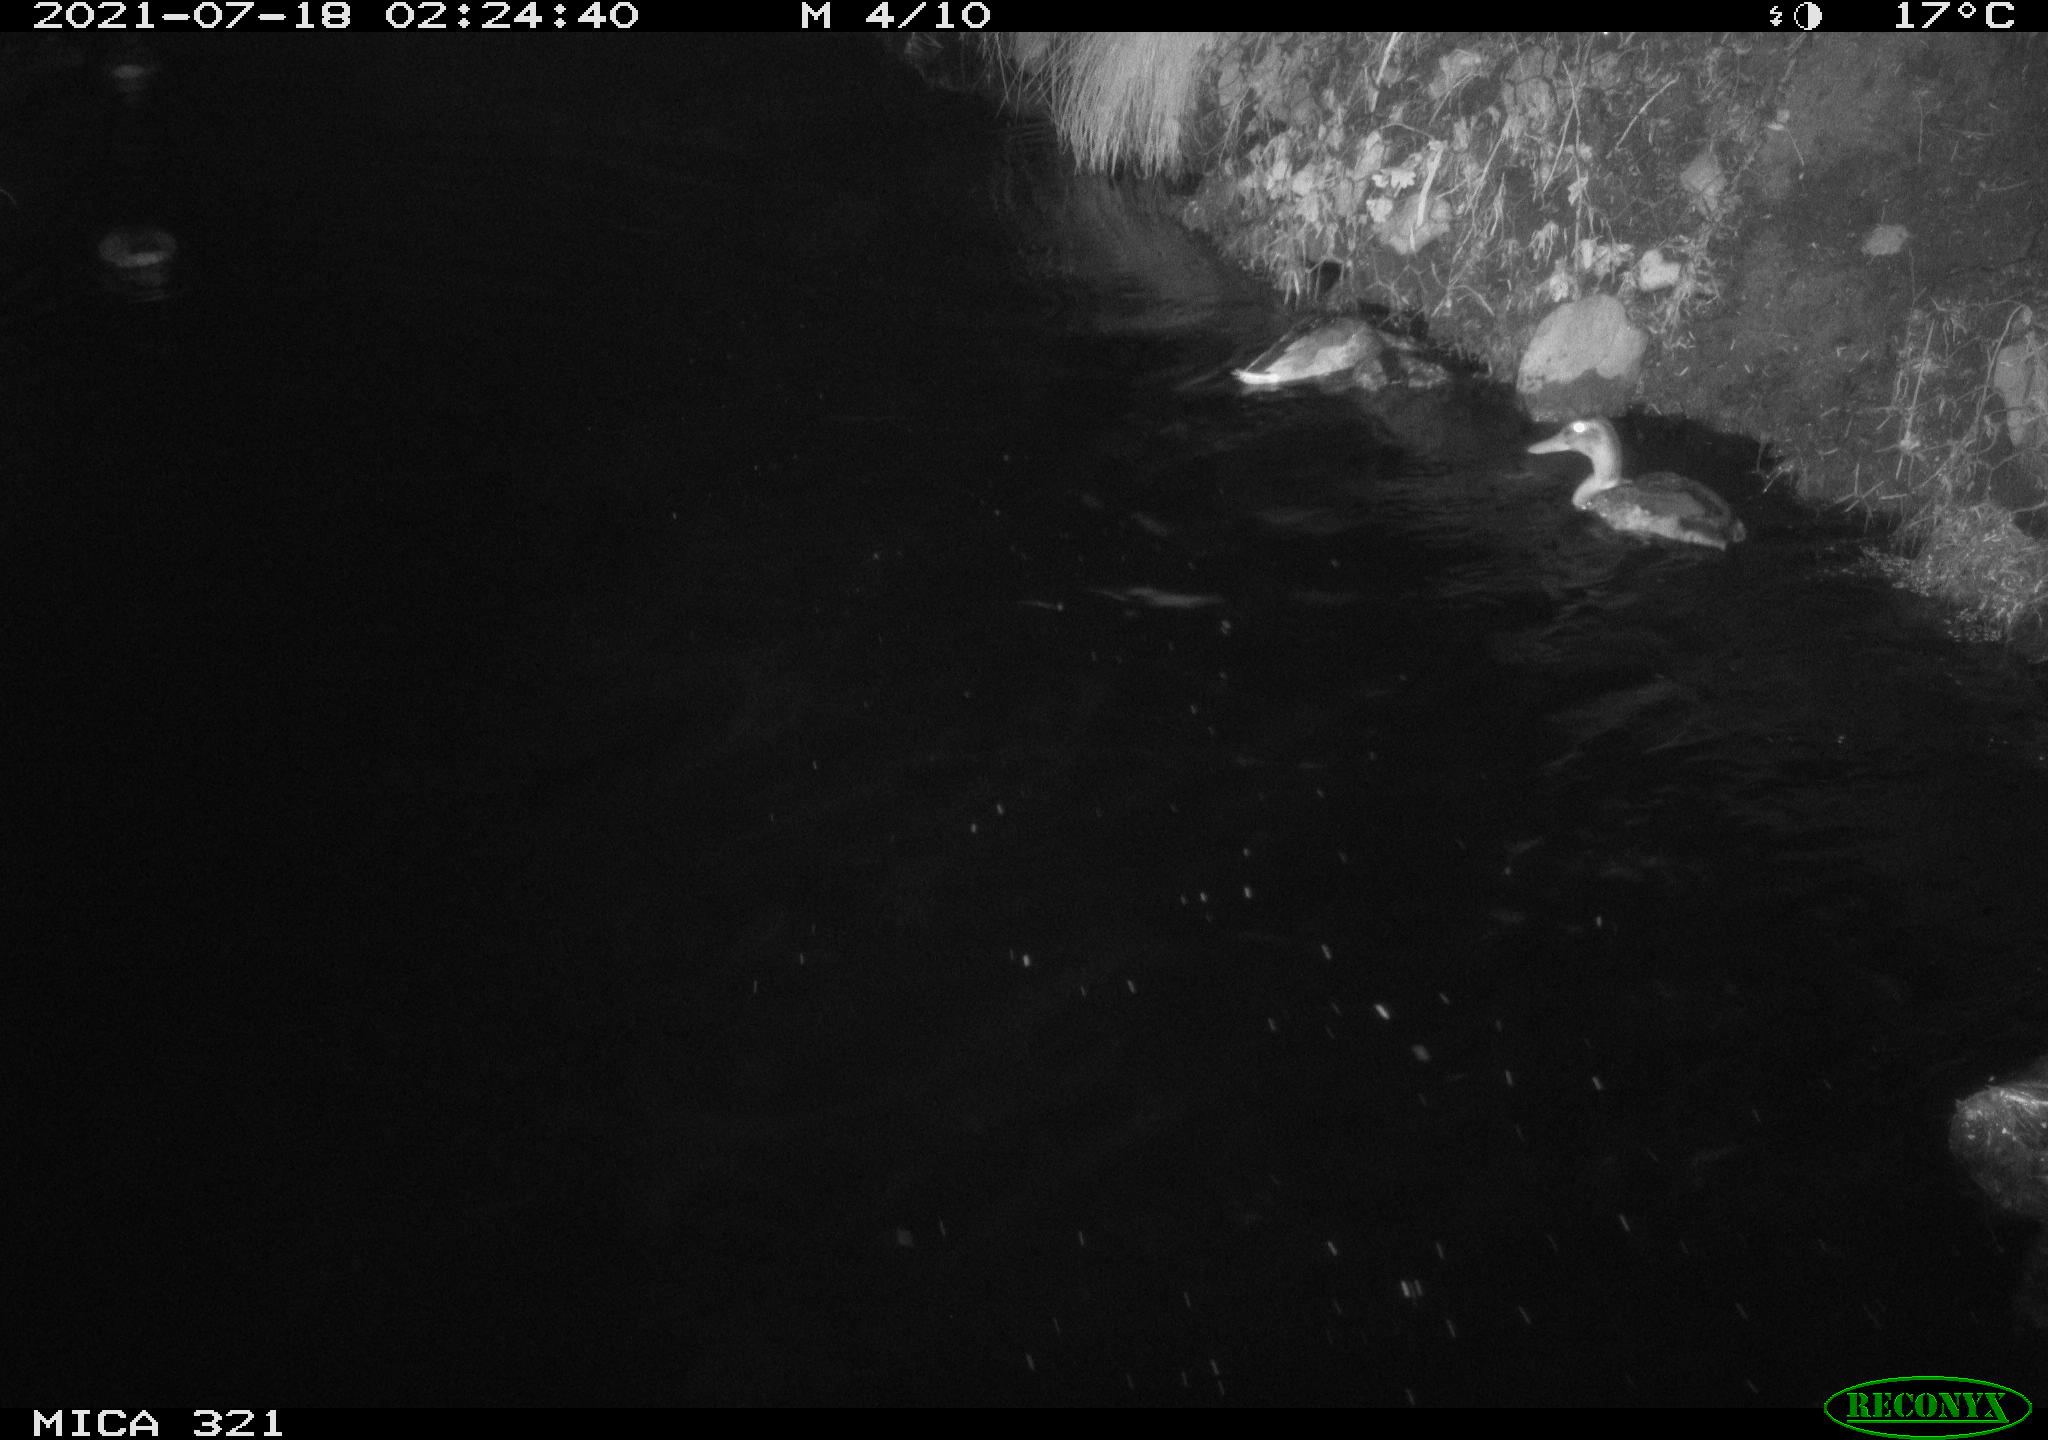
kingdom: Animalia
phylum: Chordata
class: Aves
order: Anseriformes
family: Anatidae
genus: Anas
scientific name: Anas platyrhynchos
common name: Mallard
